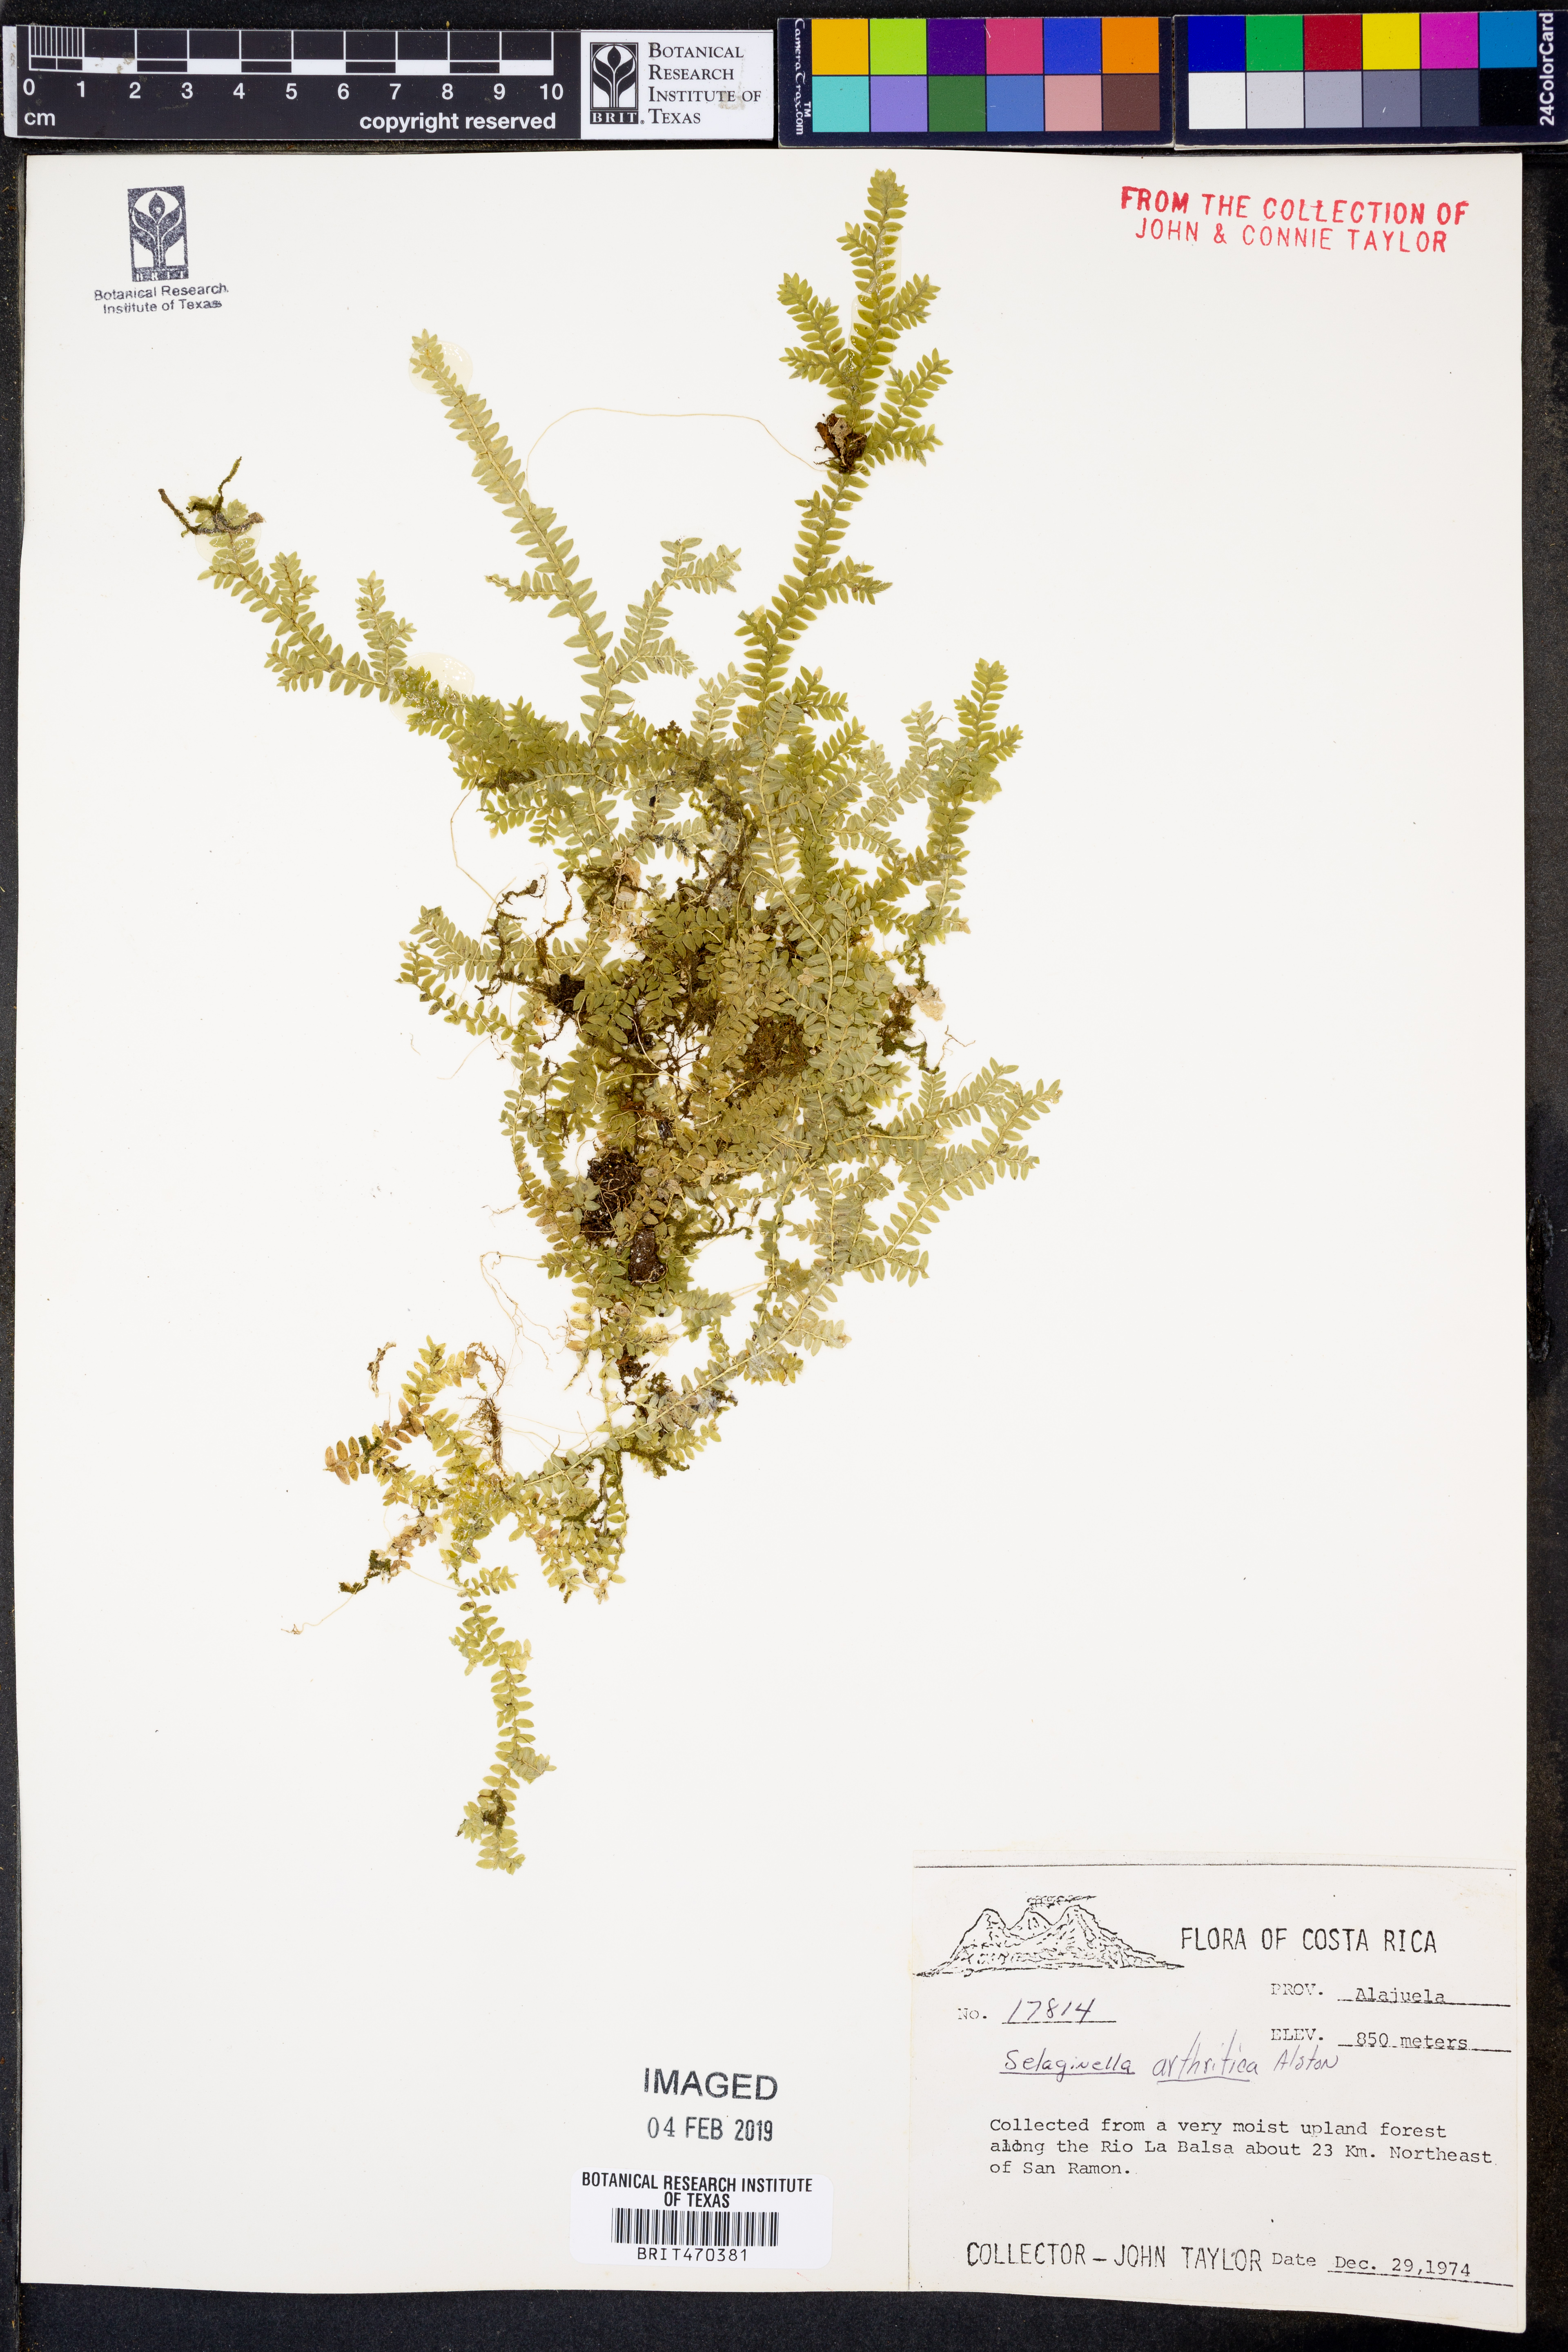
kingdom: Plantae
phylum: Tracheophyta
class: Lycopodiopsida
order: Selaginellales
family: Selaginellaceae
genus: Selaginella
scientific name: Selaginella arthritica
